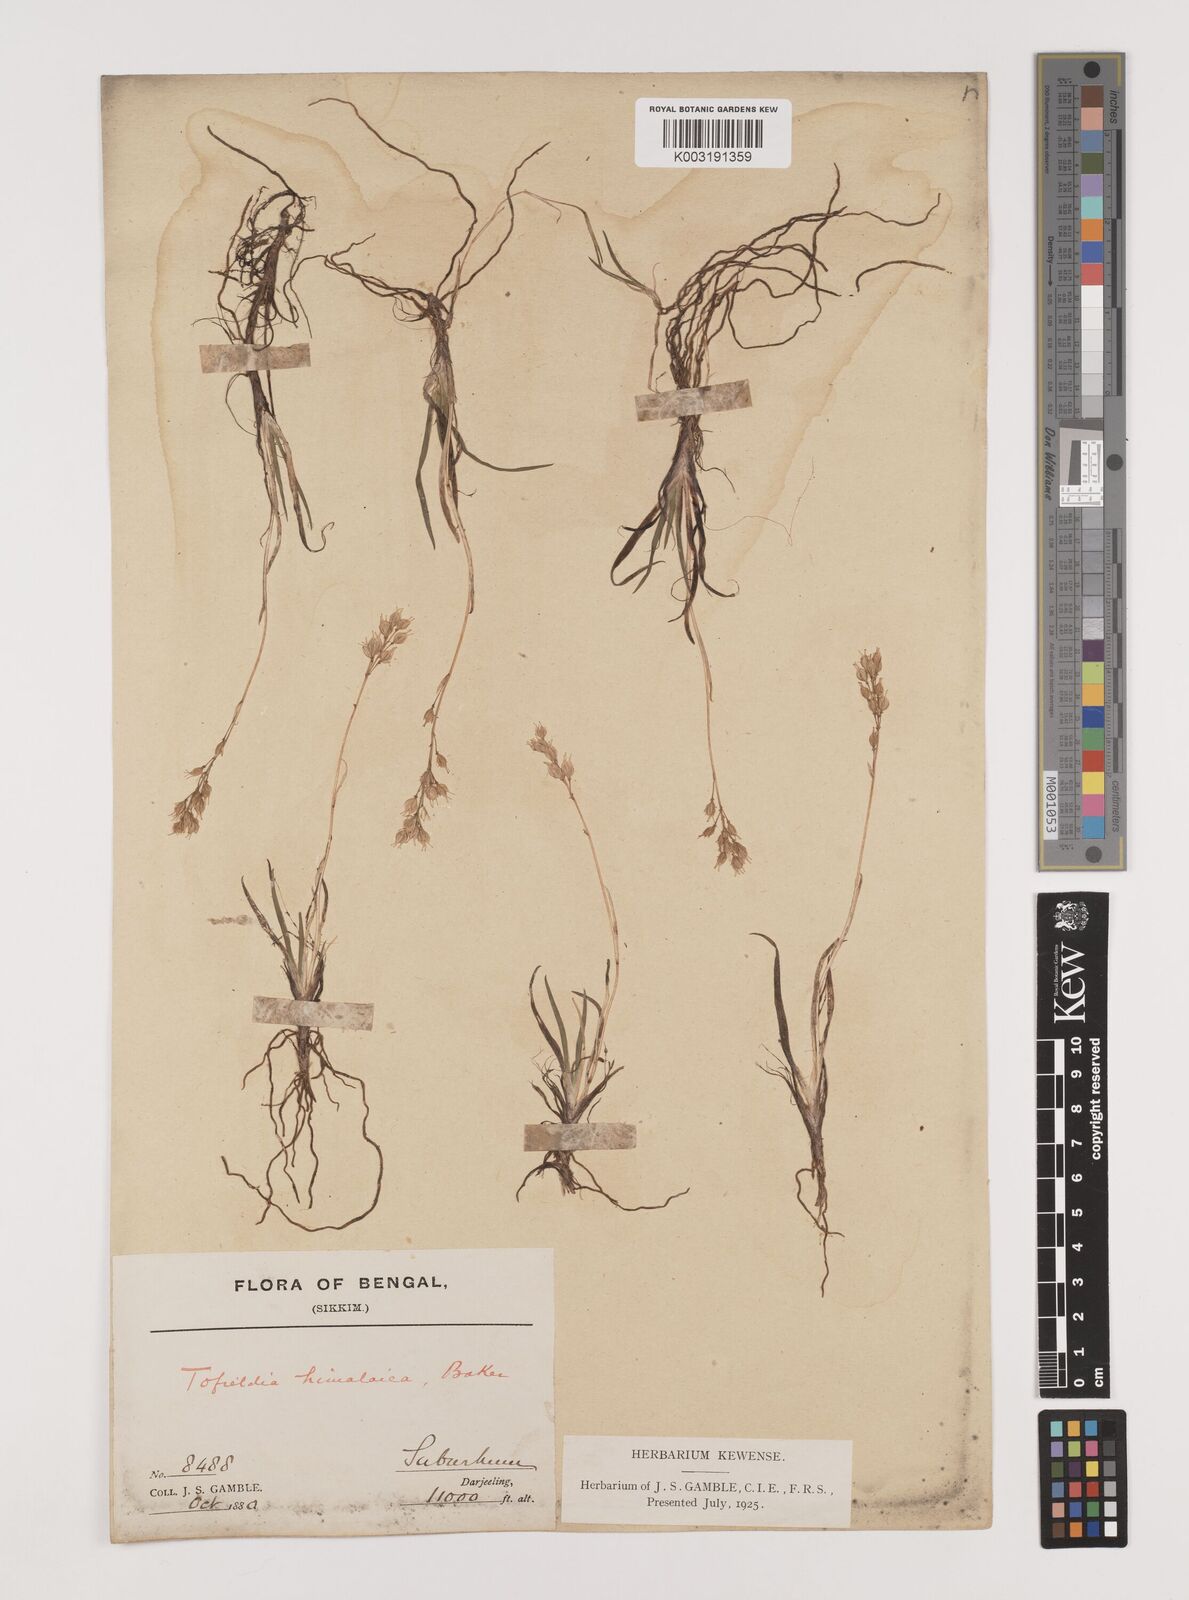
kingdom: Plantae
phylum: Tracheophyta
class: Liliopsida
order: Alismatales
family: Tofieldiaceae
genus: Tofieldia
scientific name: Tofieldia himalaica
